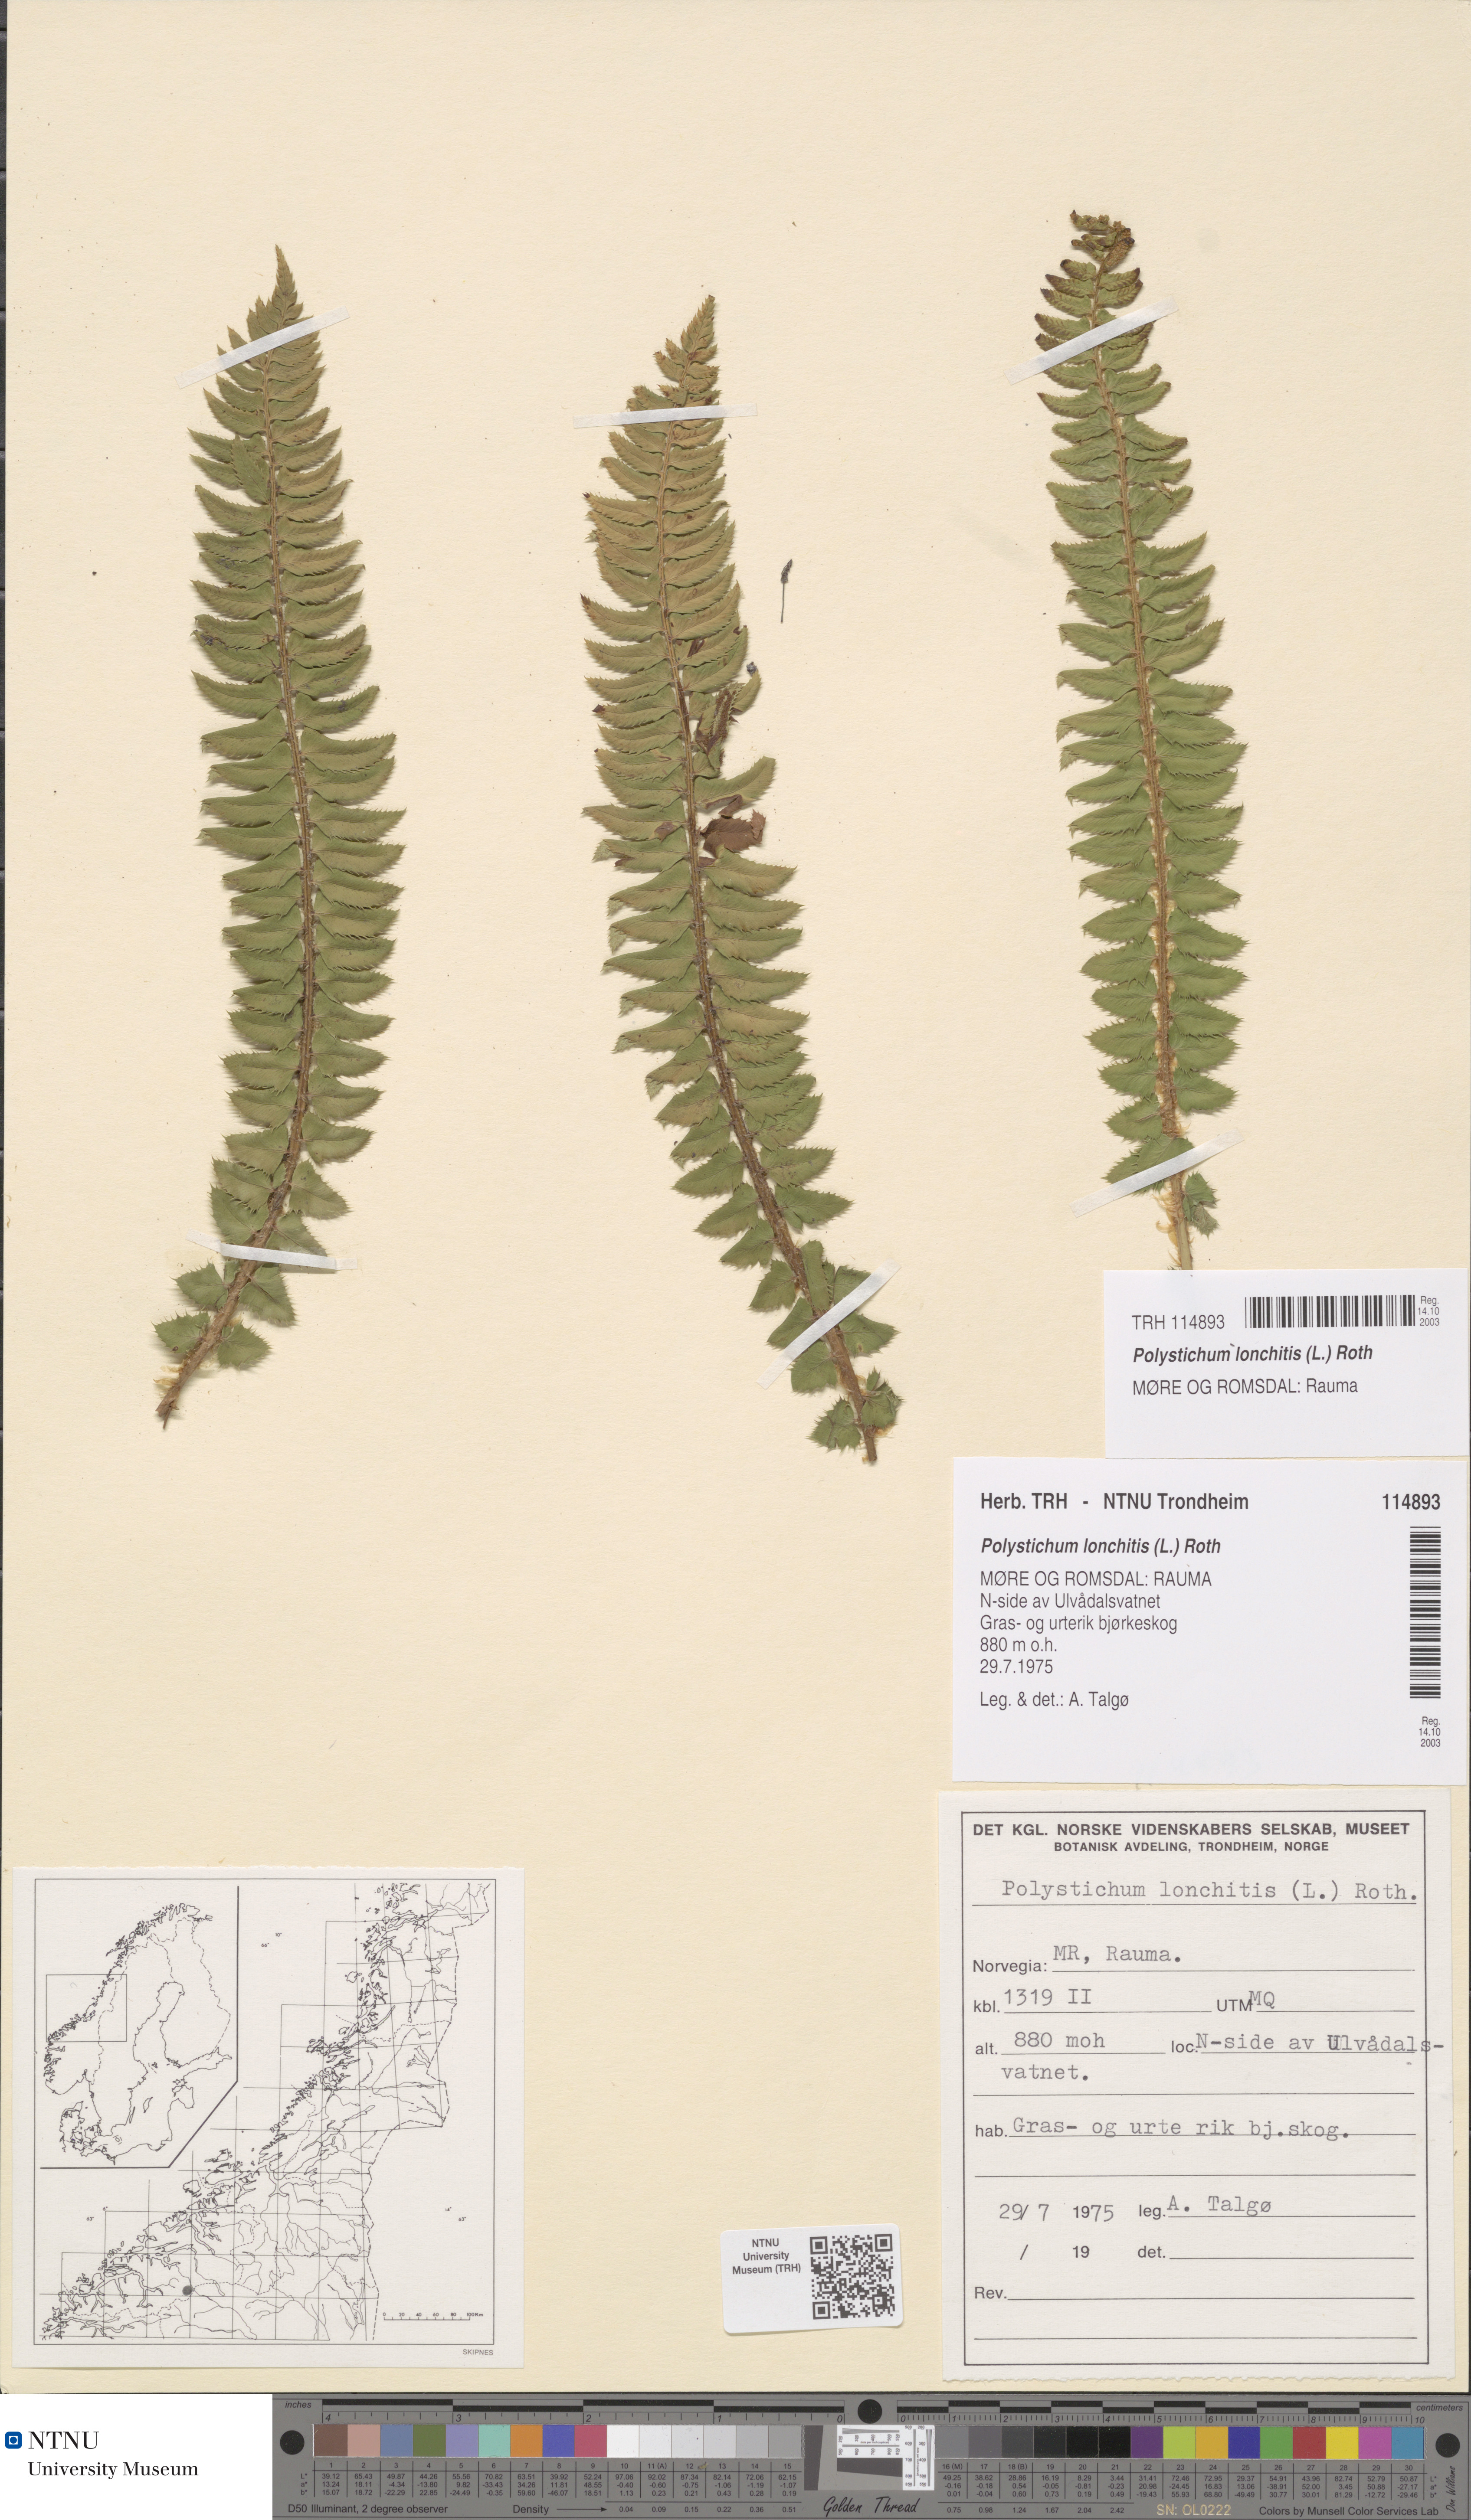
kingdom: Plantae
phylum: Tracheophyta
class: Polypodiopsida
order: Polypodiales
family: Dryopteridaceae
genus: Polystichum
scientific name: Polystichum lonchitis
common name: Holly fern
